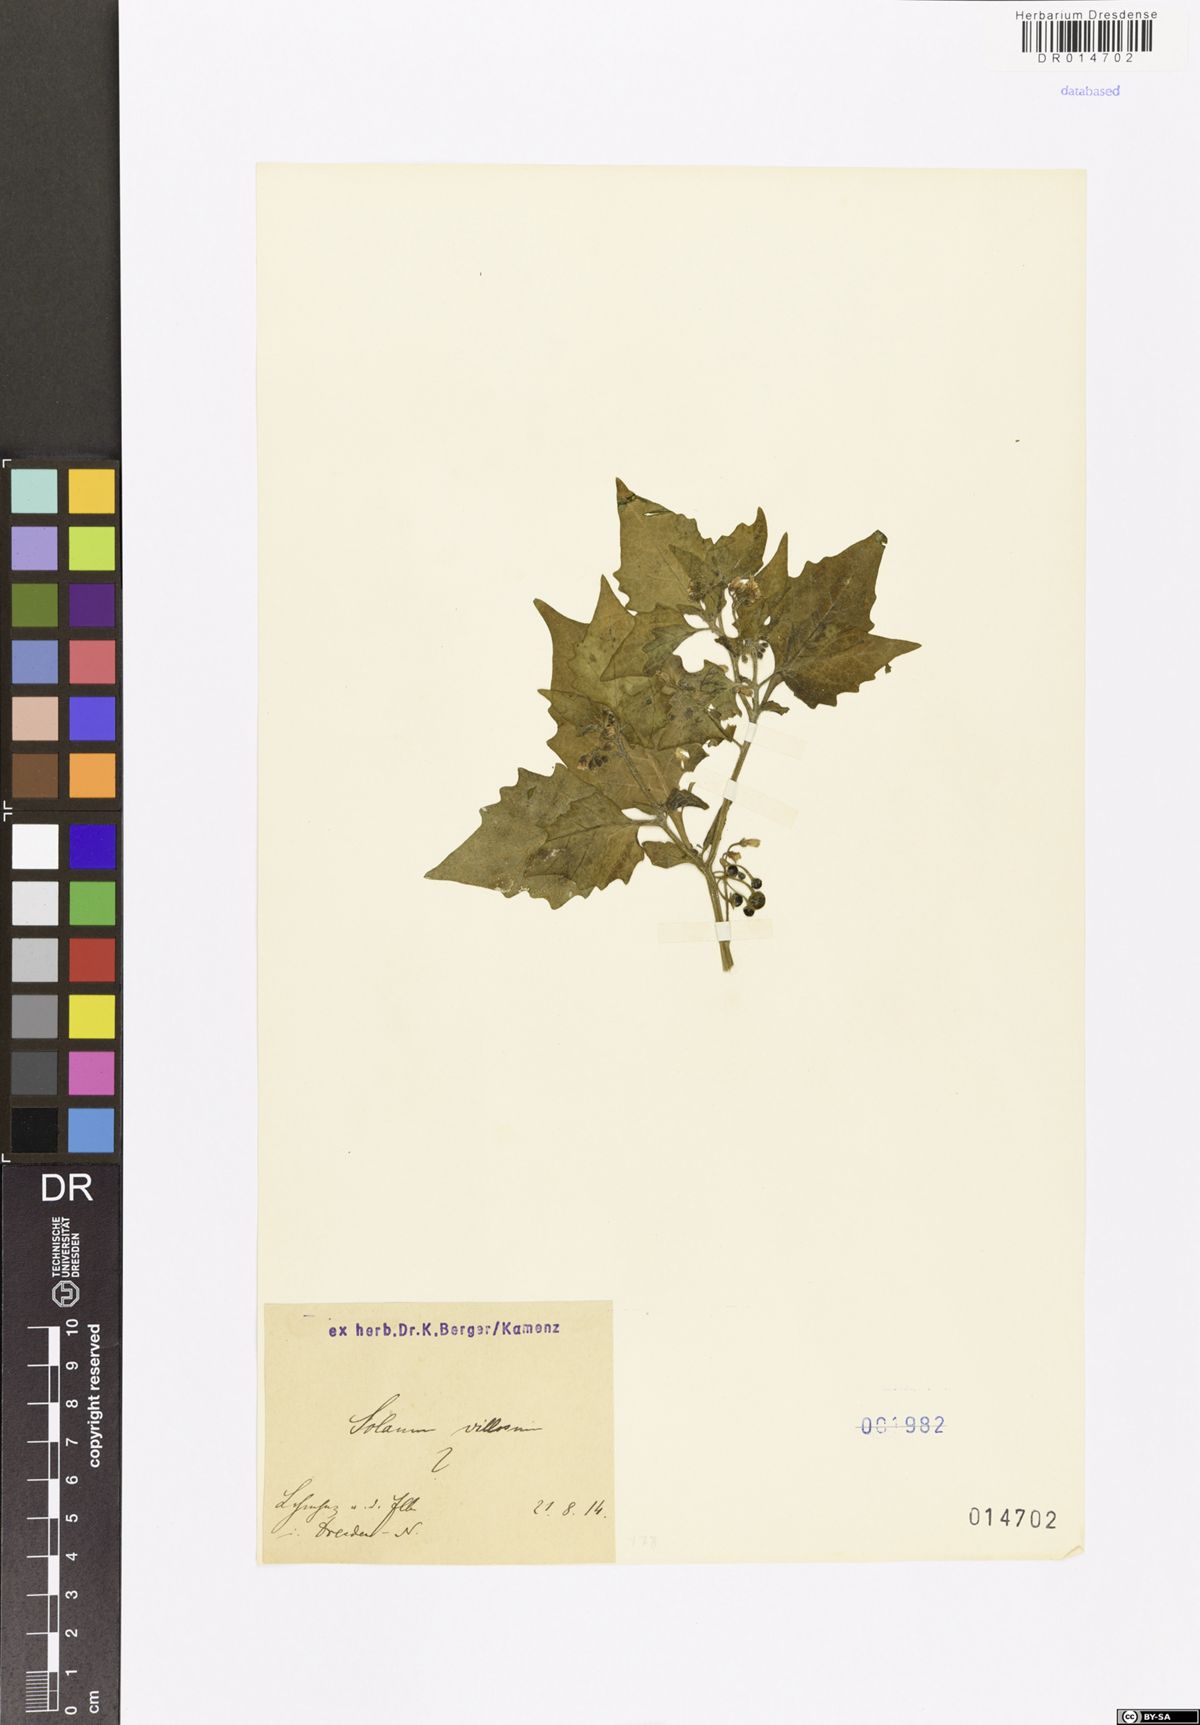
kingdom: Plantae
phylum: Tracheophyta
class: Magnoliopsida
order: Solanales
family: Solanaceae
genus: Solanum
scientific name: Solanum villosum
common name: Red nightshade
